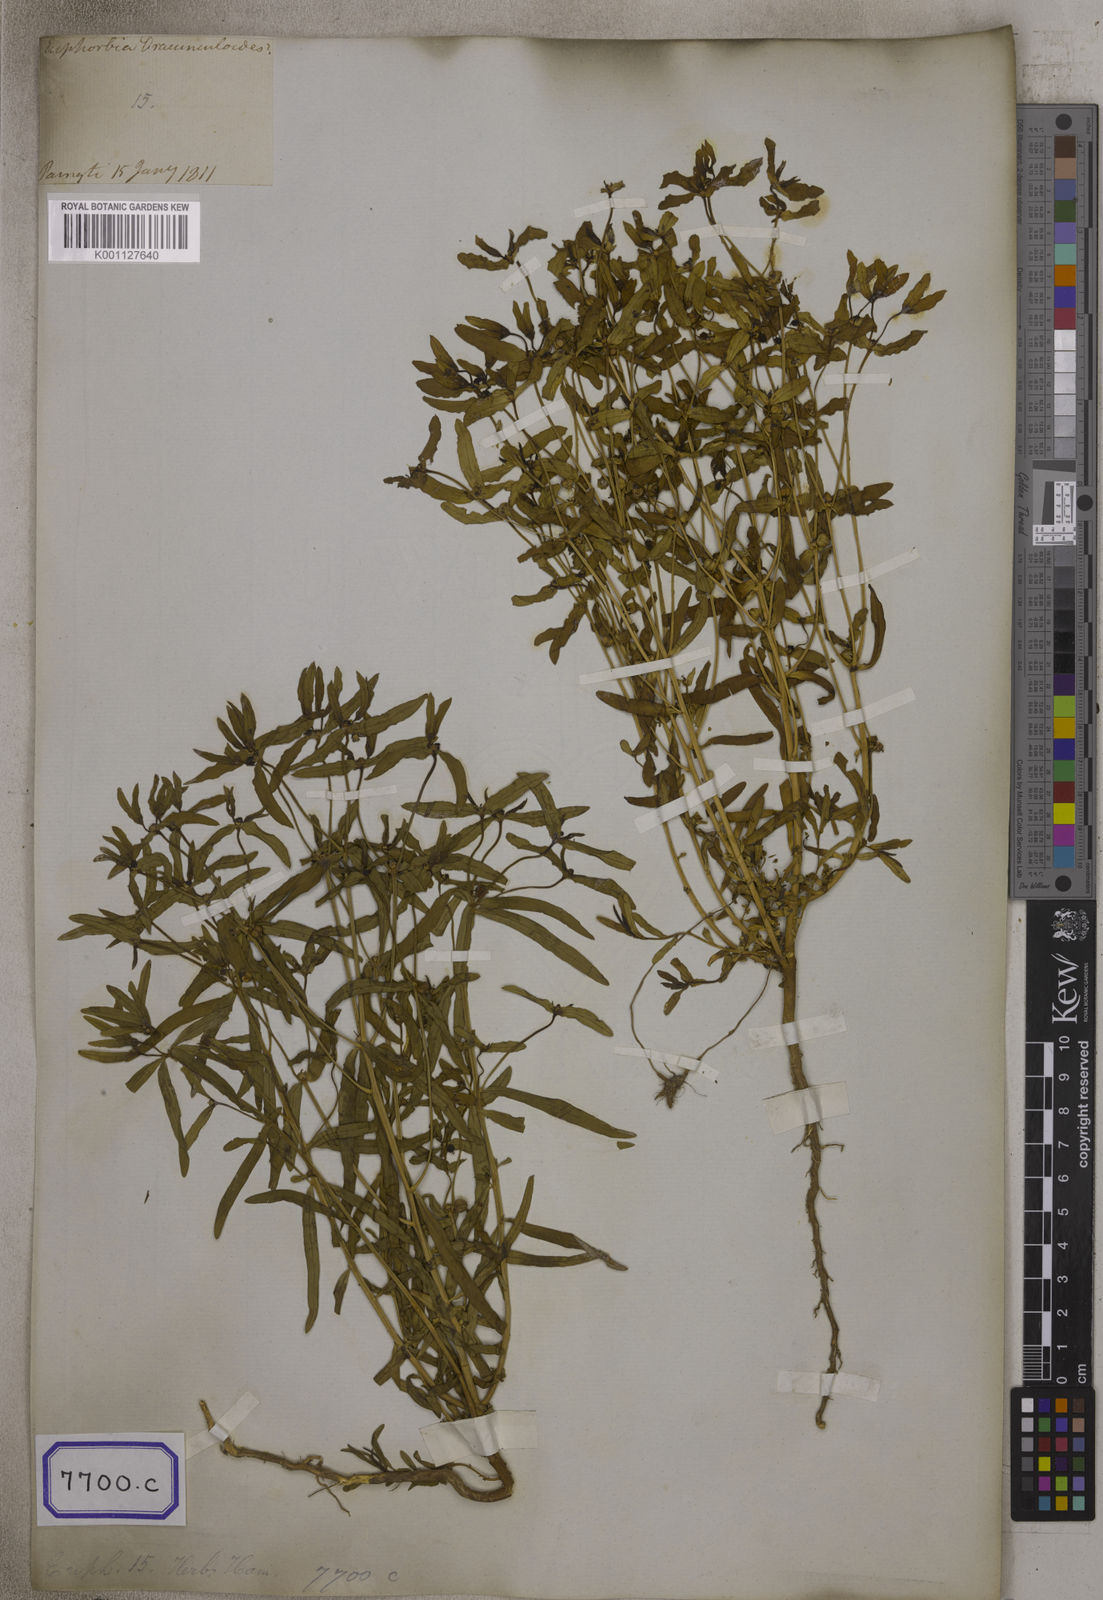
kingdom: Plantae
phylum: Tracheophyta
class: Magnoliopsida
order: Malpighiales
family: Euphorbiaceae
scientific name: Euphorbiaceae
